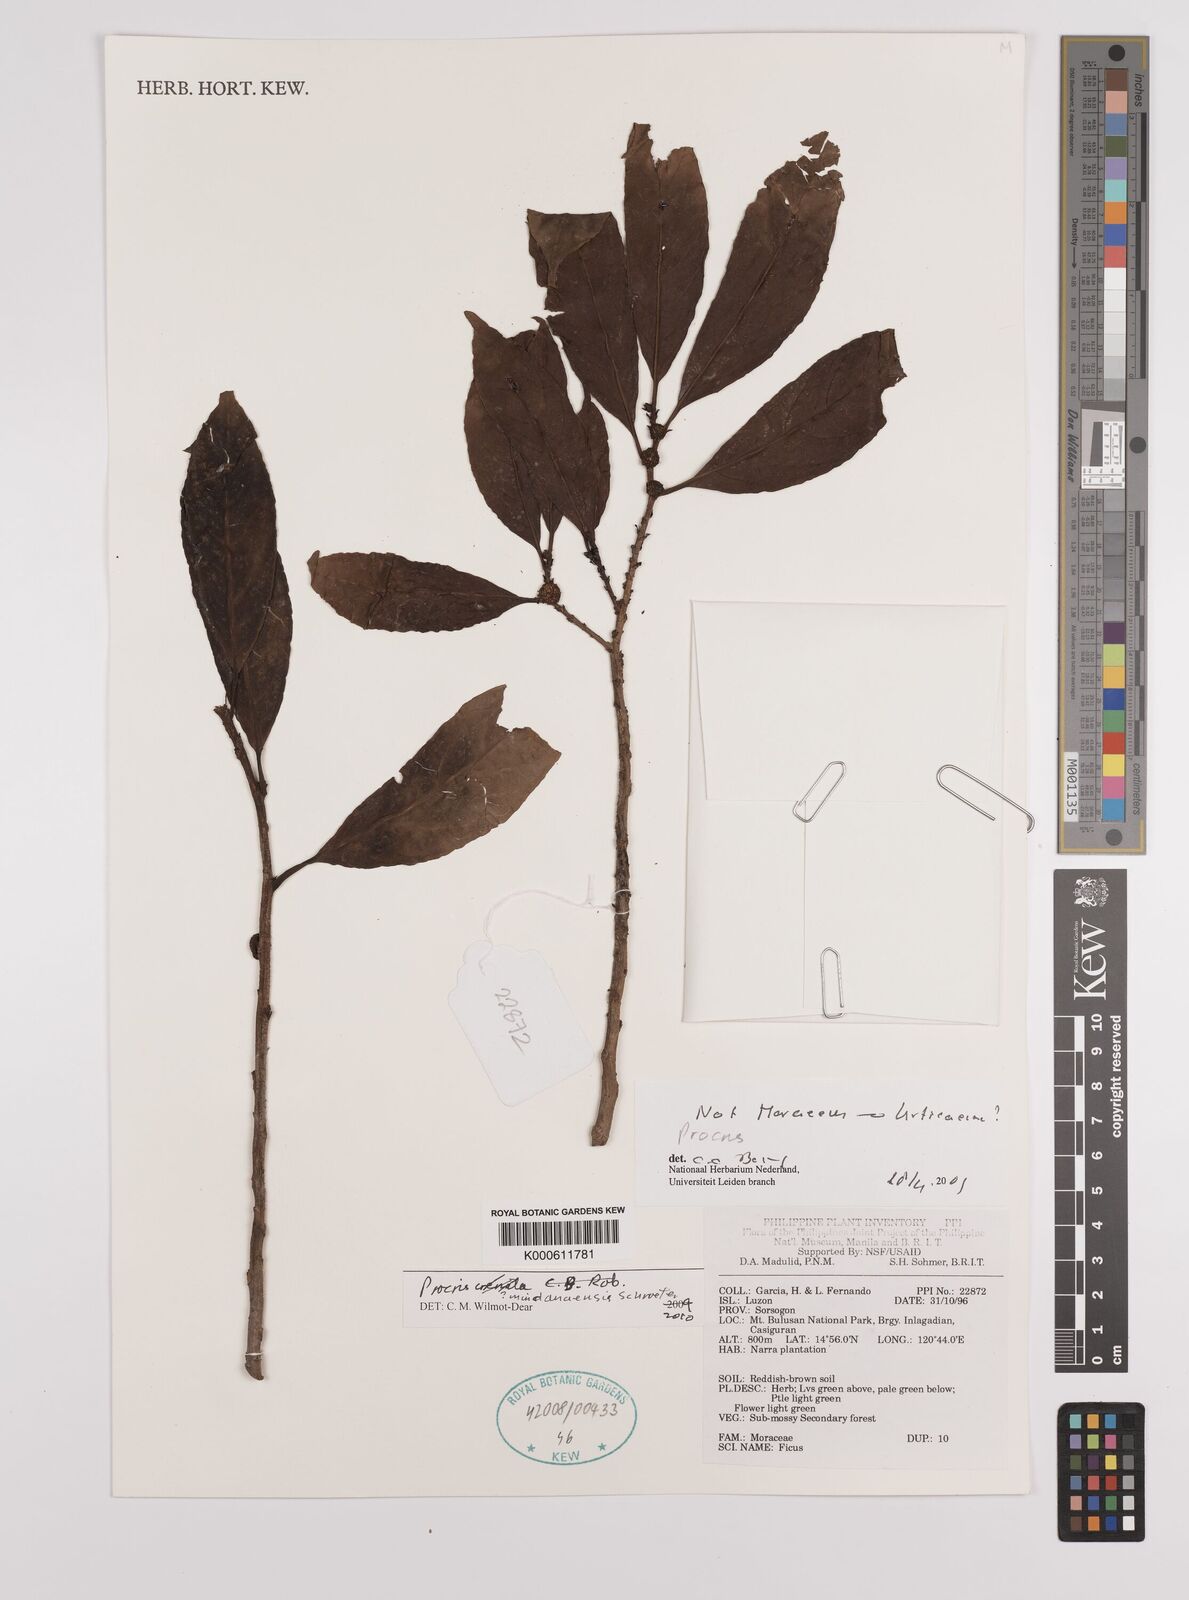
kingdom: Plantae
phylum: Tracheophyta
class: Magnoliopsida
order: Rosales
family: Urticaceae
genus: Procris
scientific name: Procris
